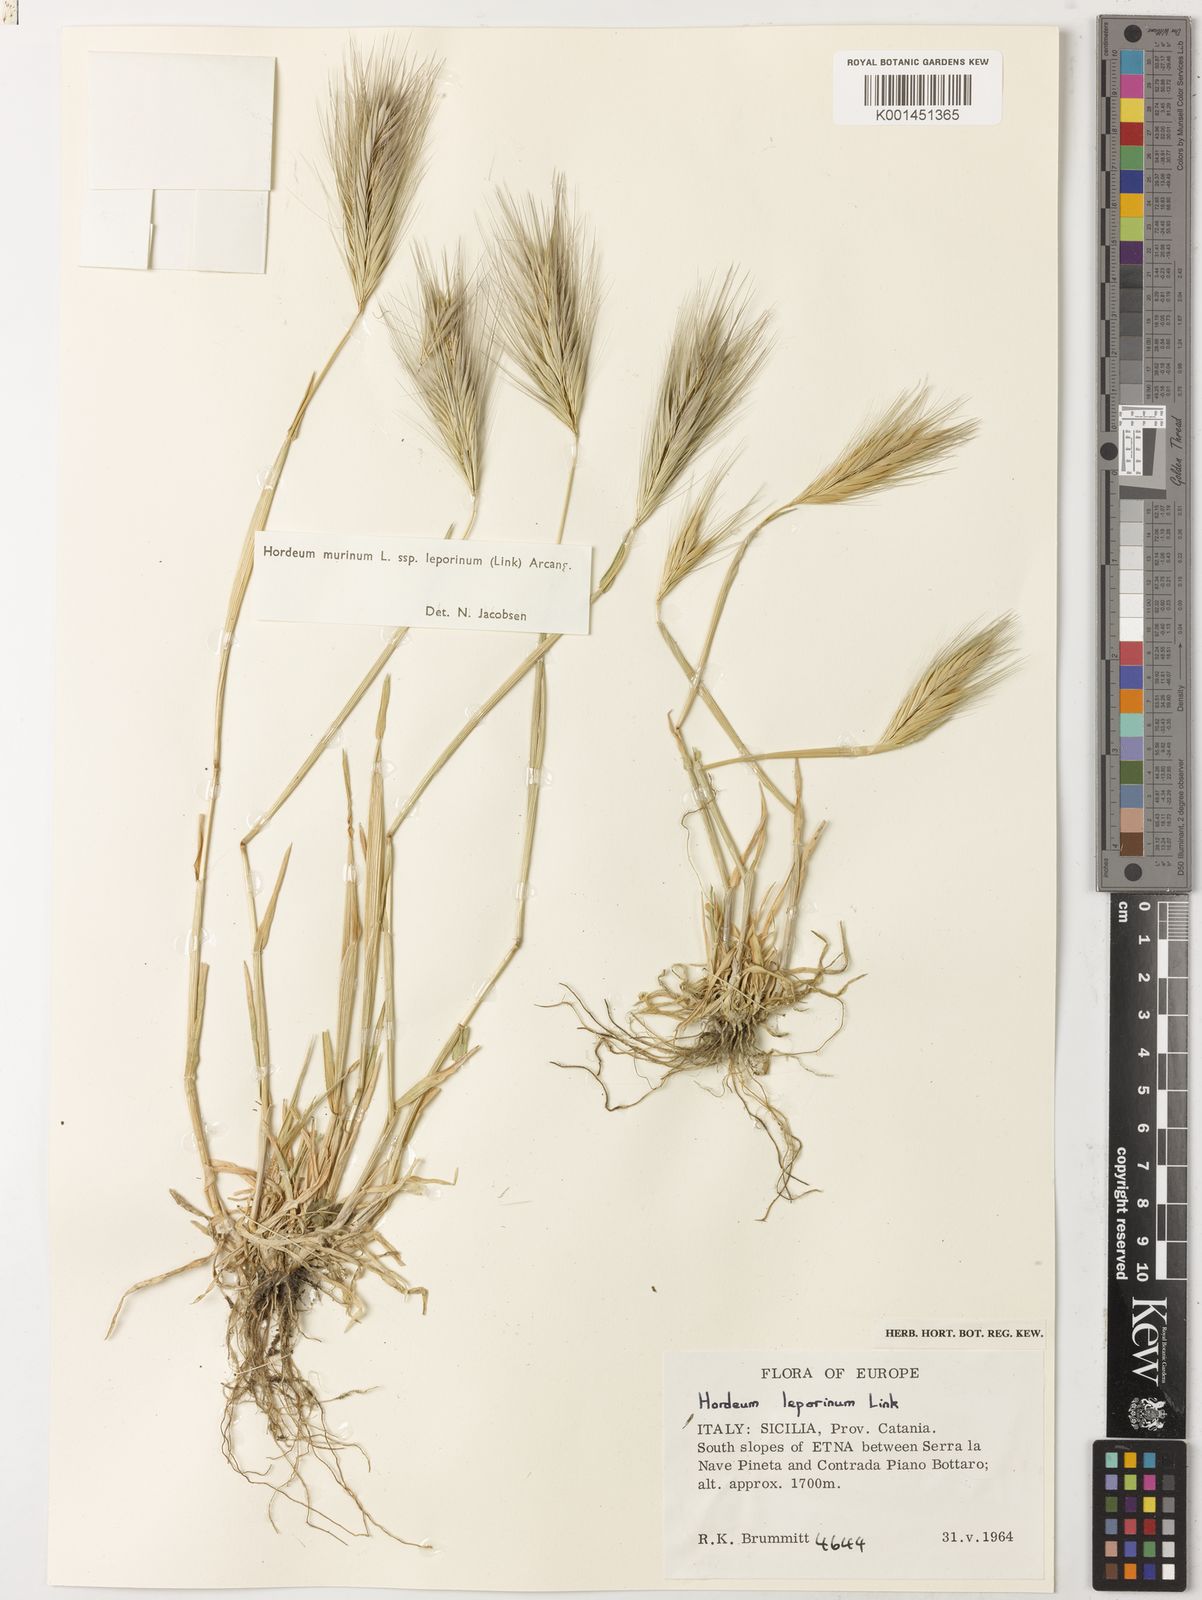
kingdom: Plantae
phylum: Tracheophyta
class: Liliopsida
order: Poales
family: Poaceae
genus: Hordeum
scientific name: Hordeum murinum
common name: Wall barley
